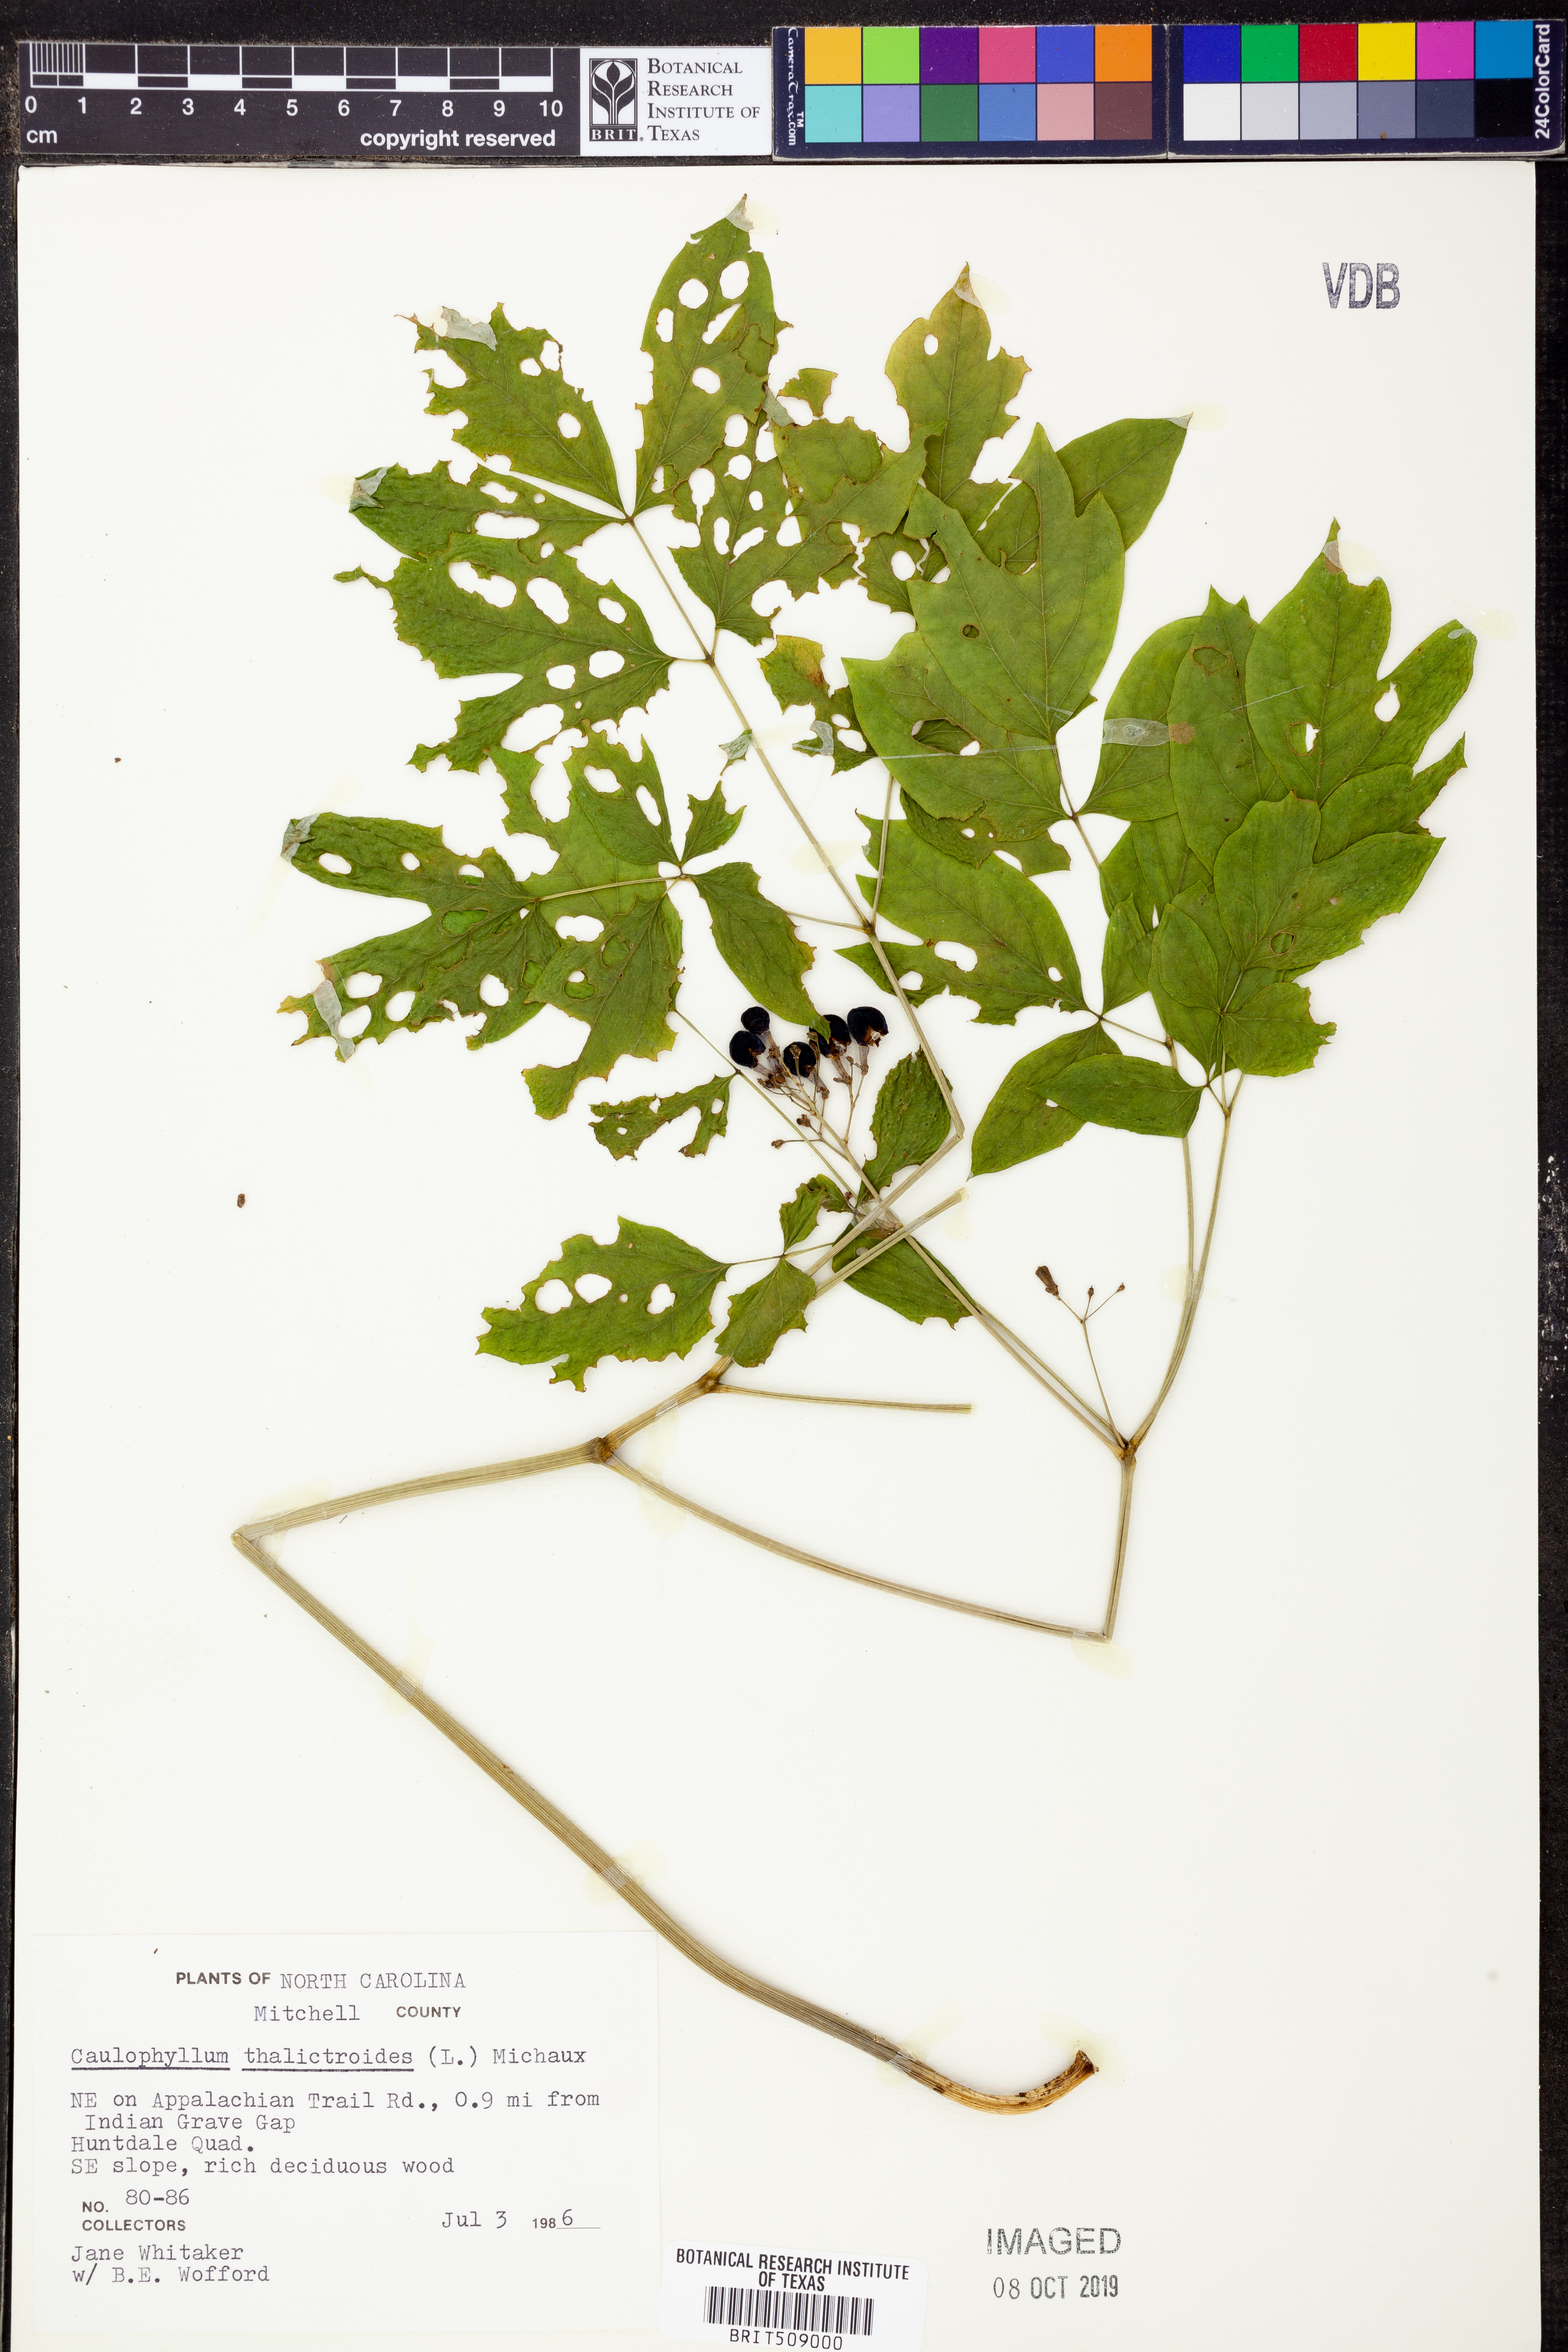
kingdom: Plantae
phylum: Tracheophyta
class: Magnoliopsida
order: Ranunculales
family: Berberidaceae
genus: Caulophyllum
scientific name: Caulophyllum thalictroides
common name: Blue cohosh
